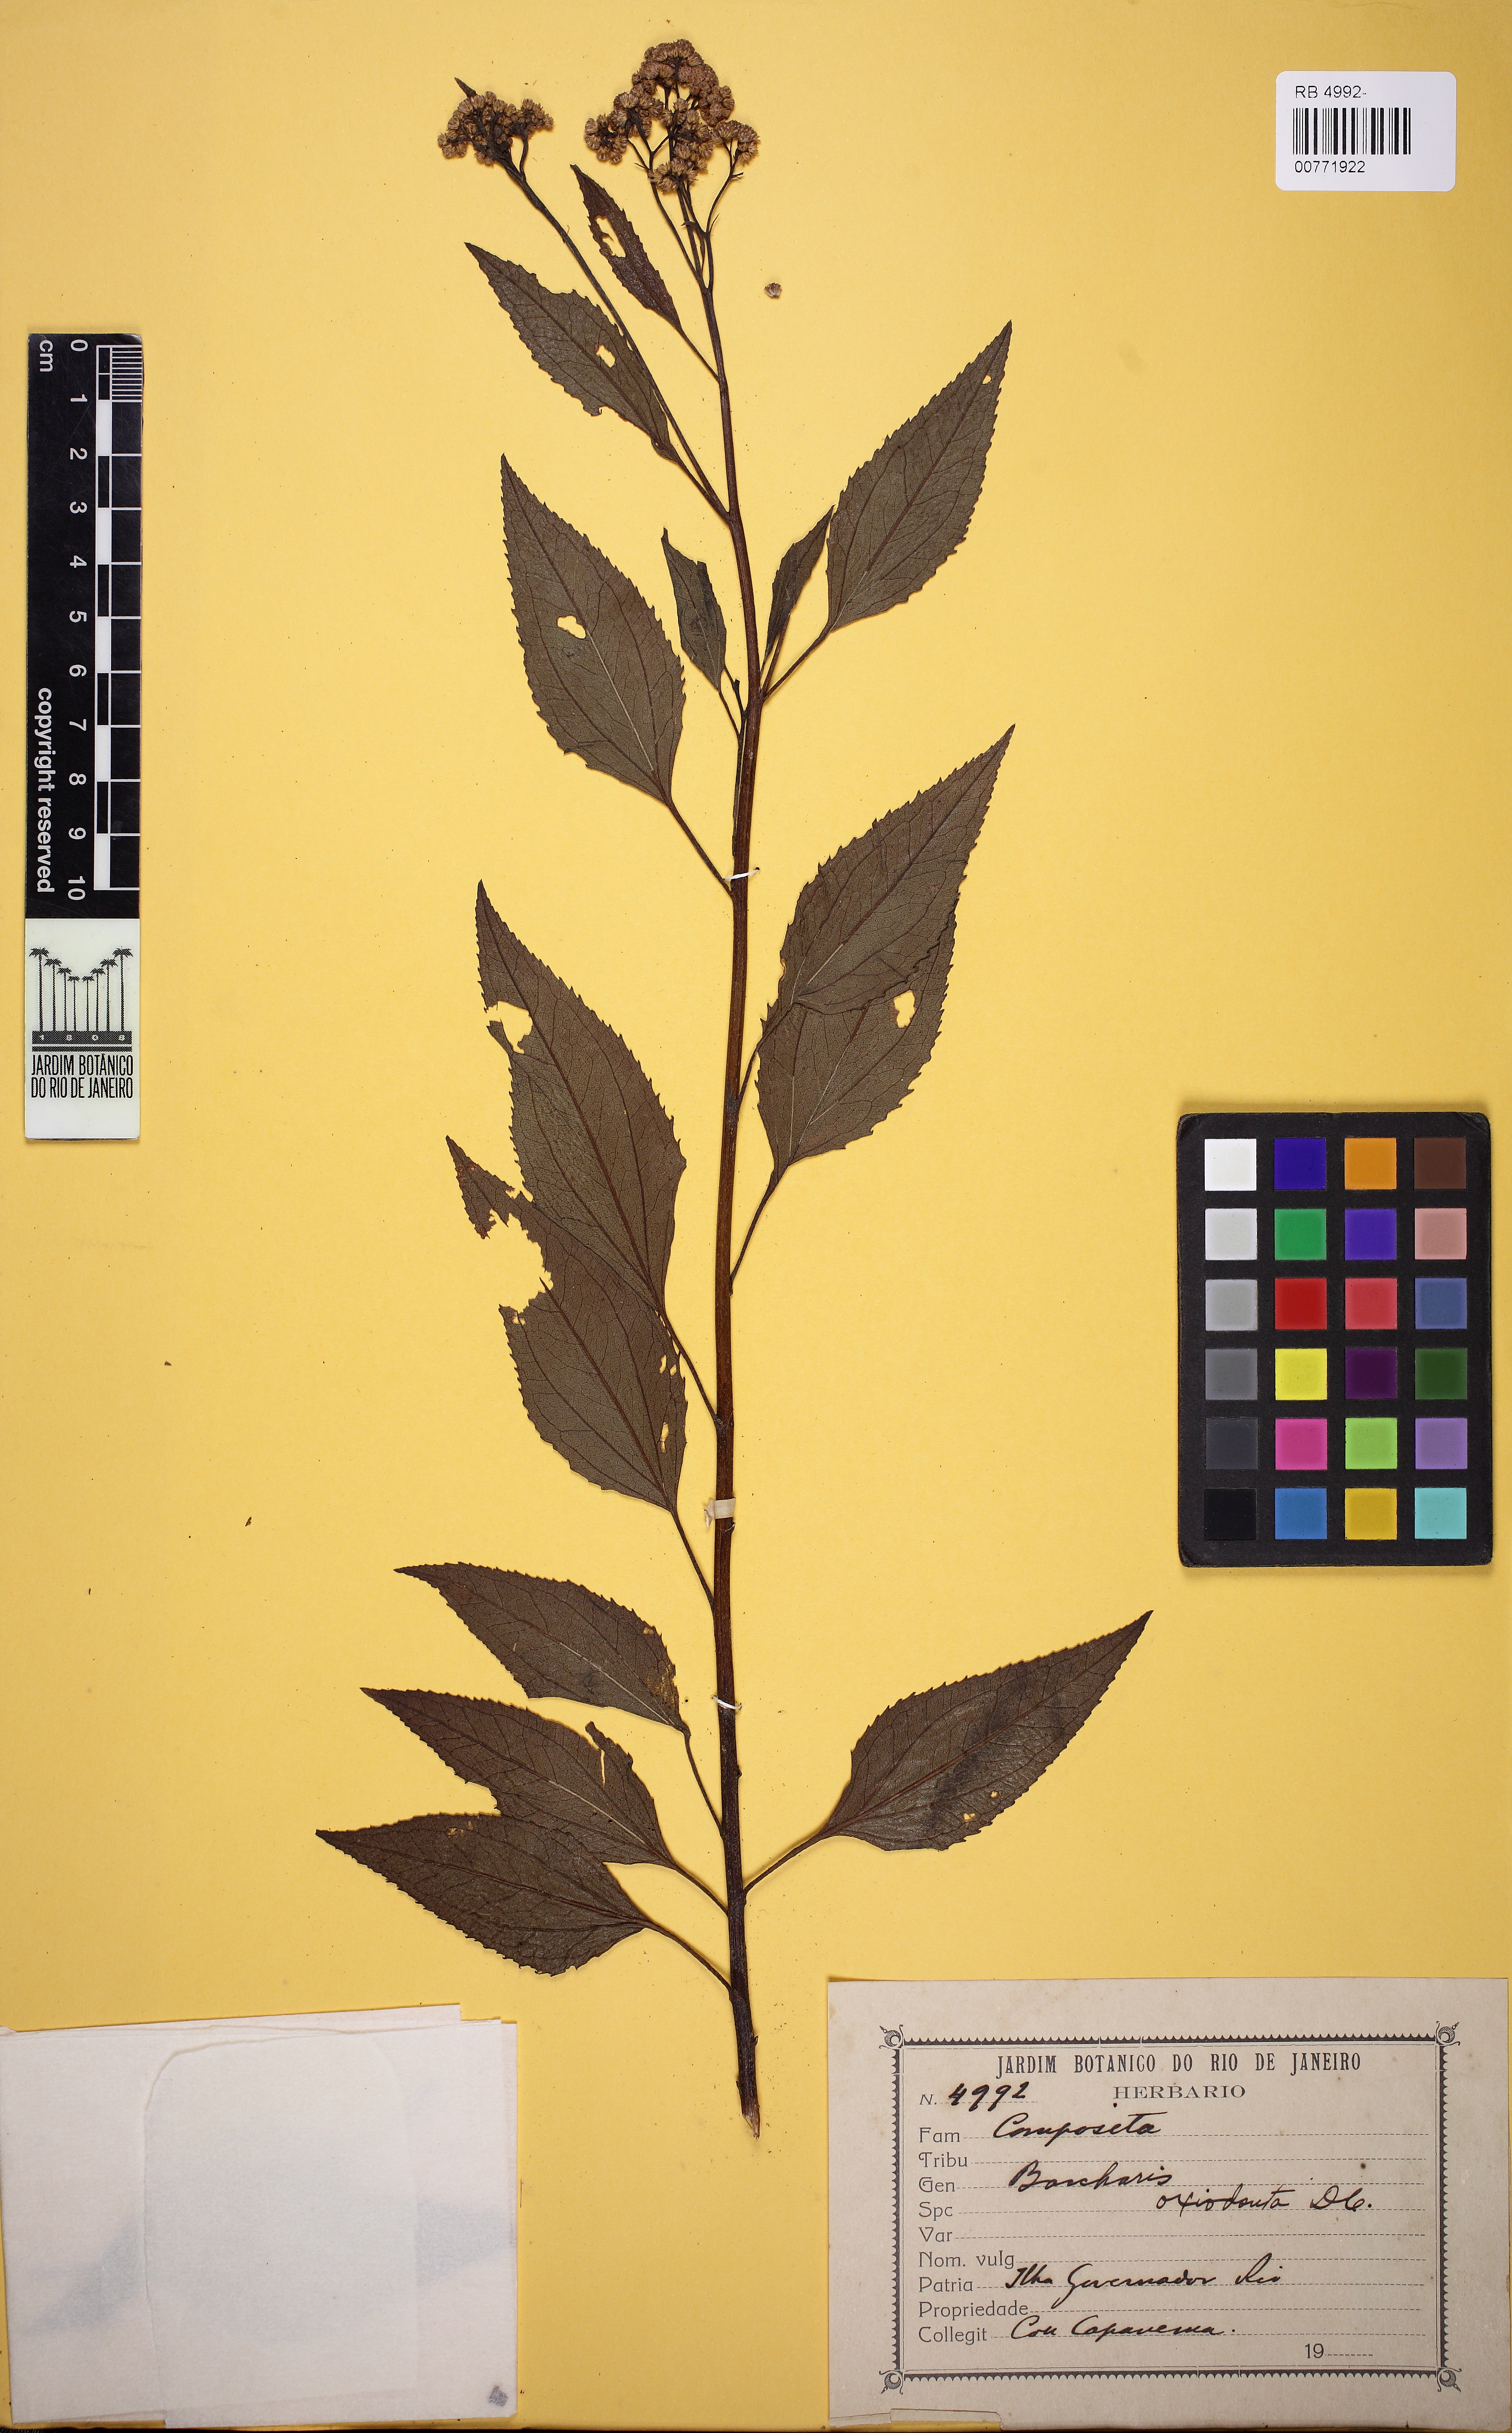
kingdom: Plantae
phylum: Tracheophyta
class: Magnoliopsida
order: Asterales
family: Asteraceae
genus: Baccharis
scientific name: Baccharis oxyodonta
